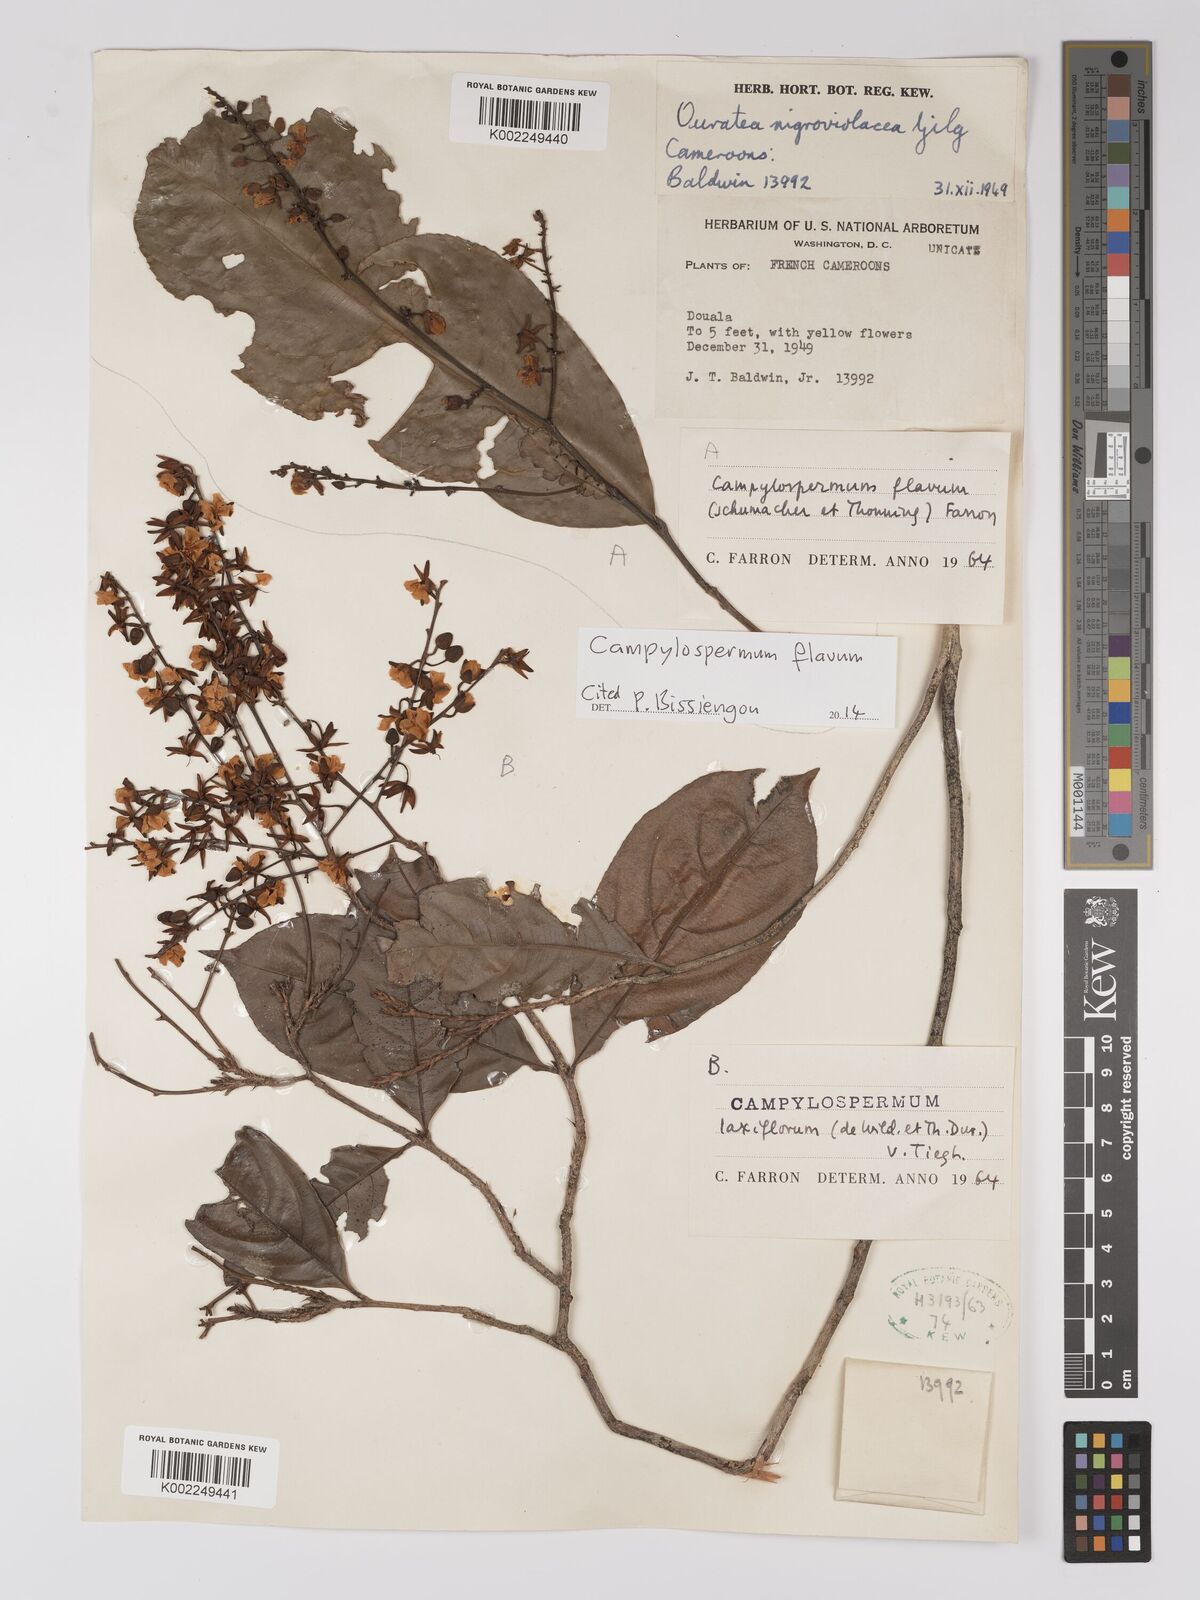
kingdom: Plantae
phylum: Tracheophyta
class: Magnoliopsida
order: Malpighiales
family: Ochnaceae
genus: Campylospermum
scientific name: Campylospermum flavum
